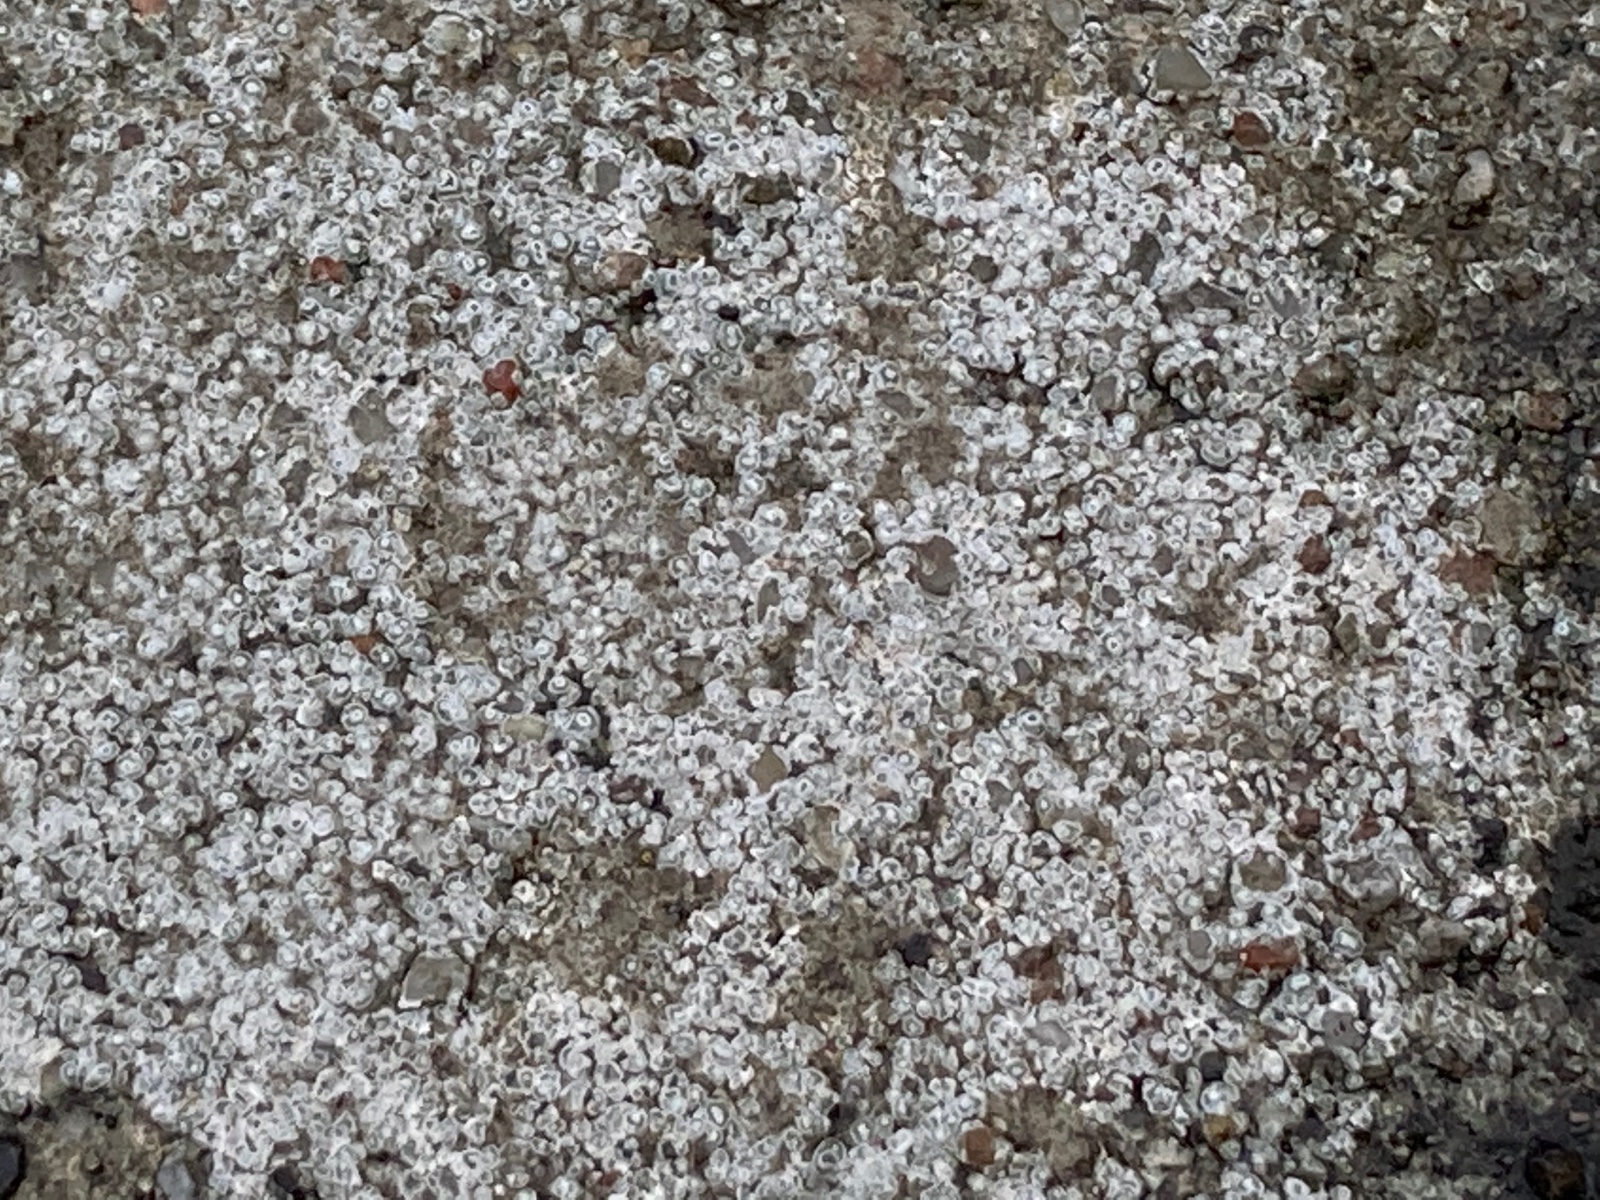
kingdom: Fungi
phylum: Ascomycota
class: Lecanoromycetes
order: Pertusariales
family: Megasporaceae
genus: Circinaria
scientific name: Circinaria contorta
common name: indviklet hulskivelav
